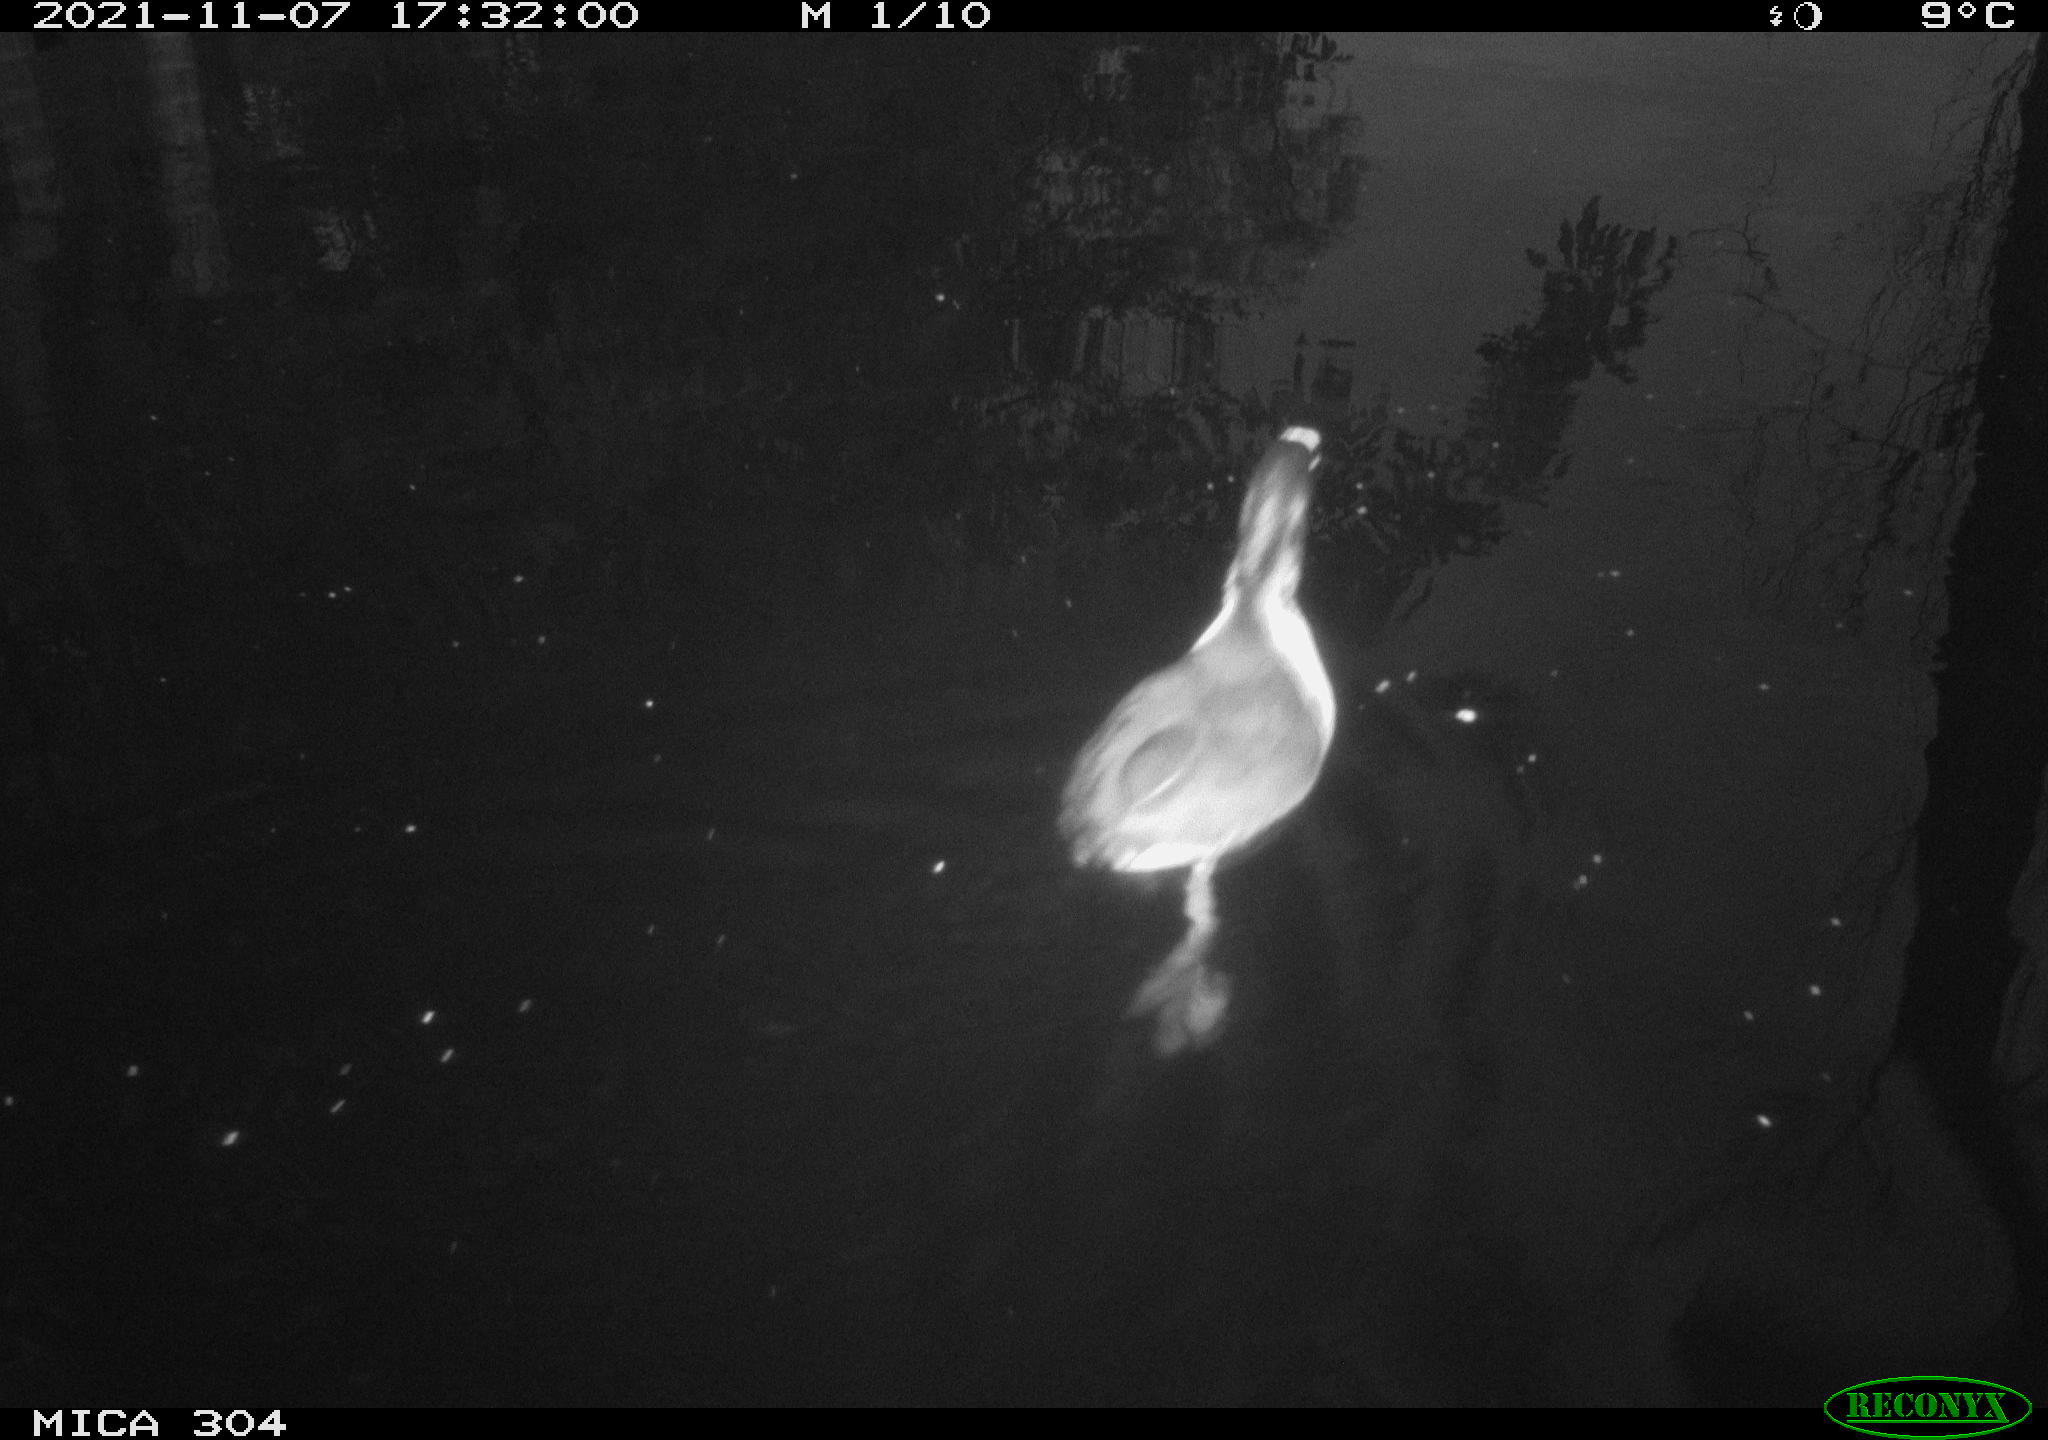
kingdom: Animalia
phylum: Chordata
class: Aves
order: Gruiformes
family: Rallidae
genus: Fulica
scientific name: Fulica atra
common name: Eurasian coot
